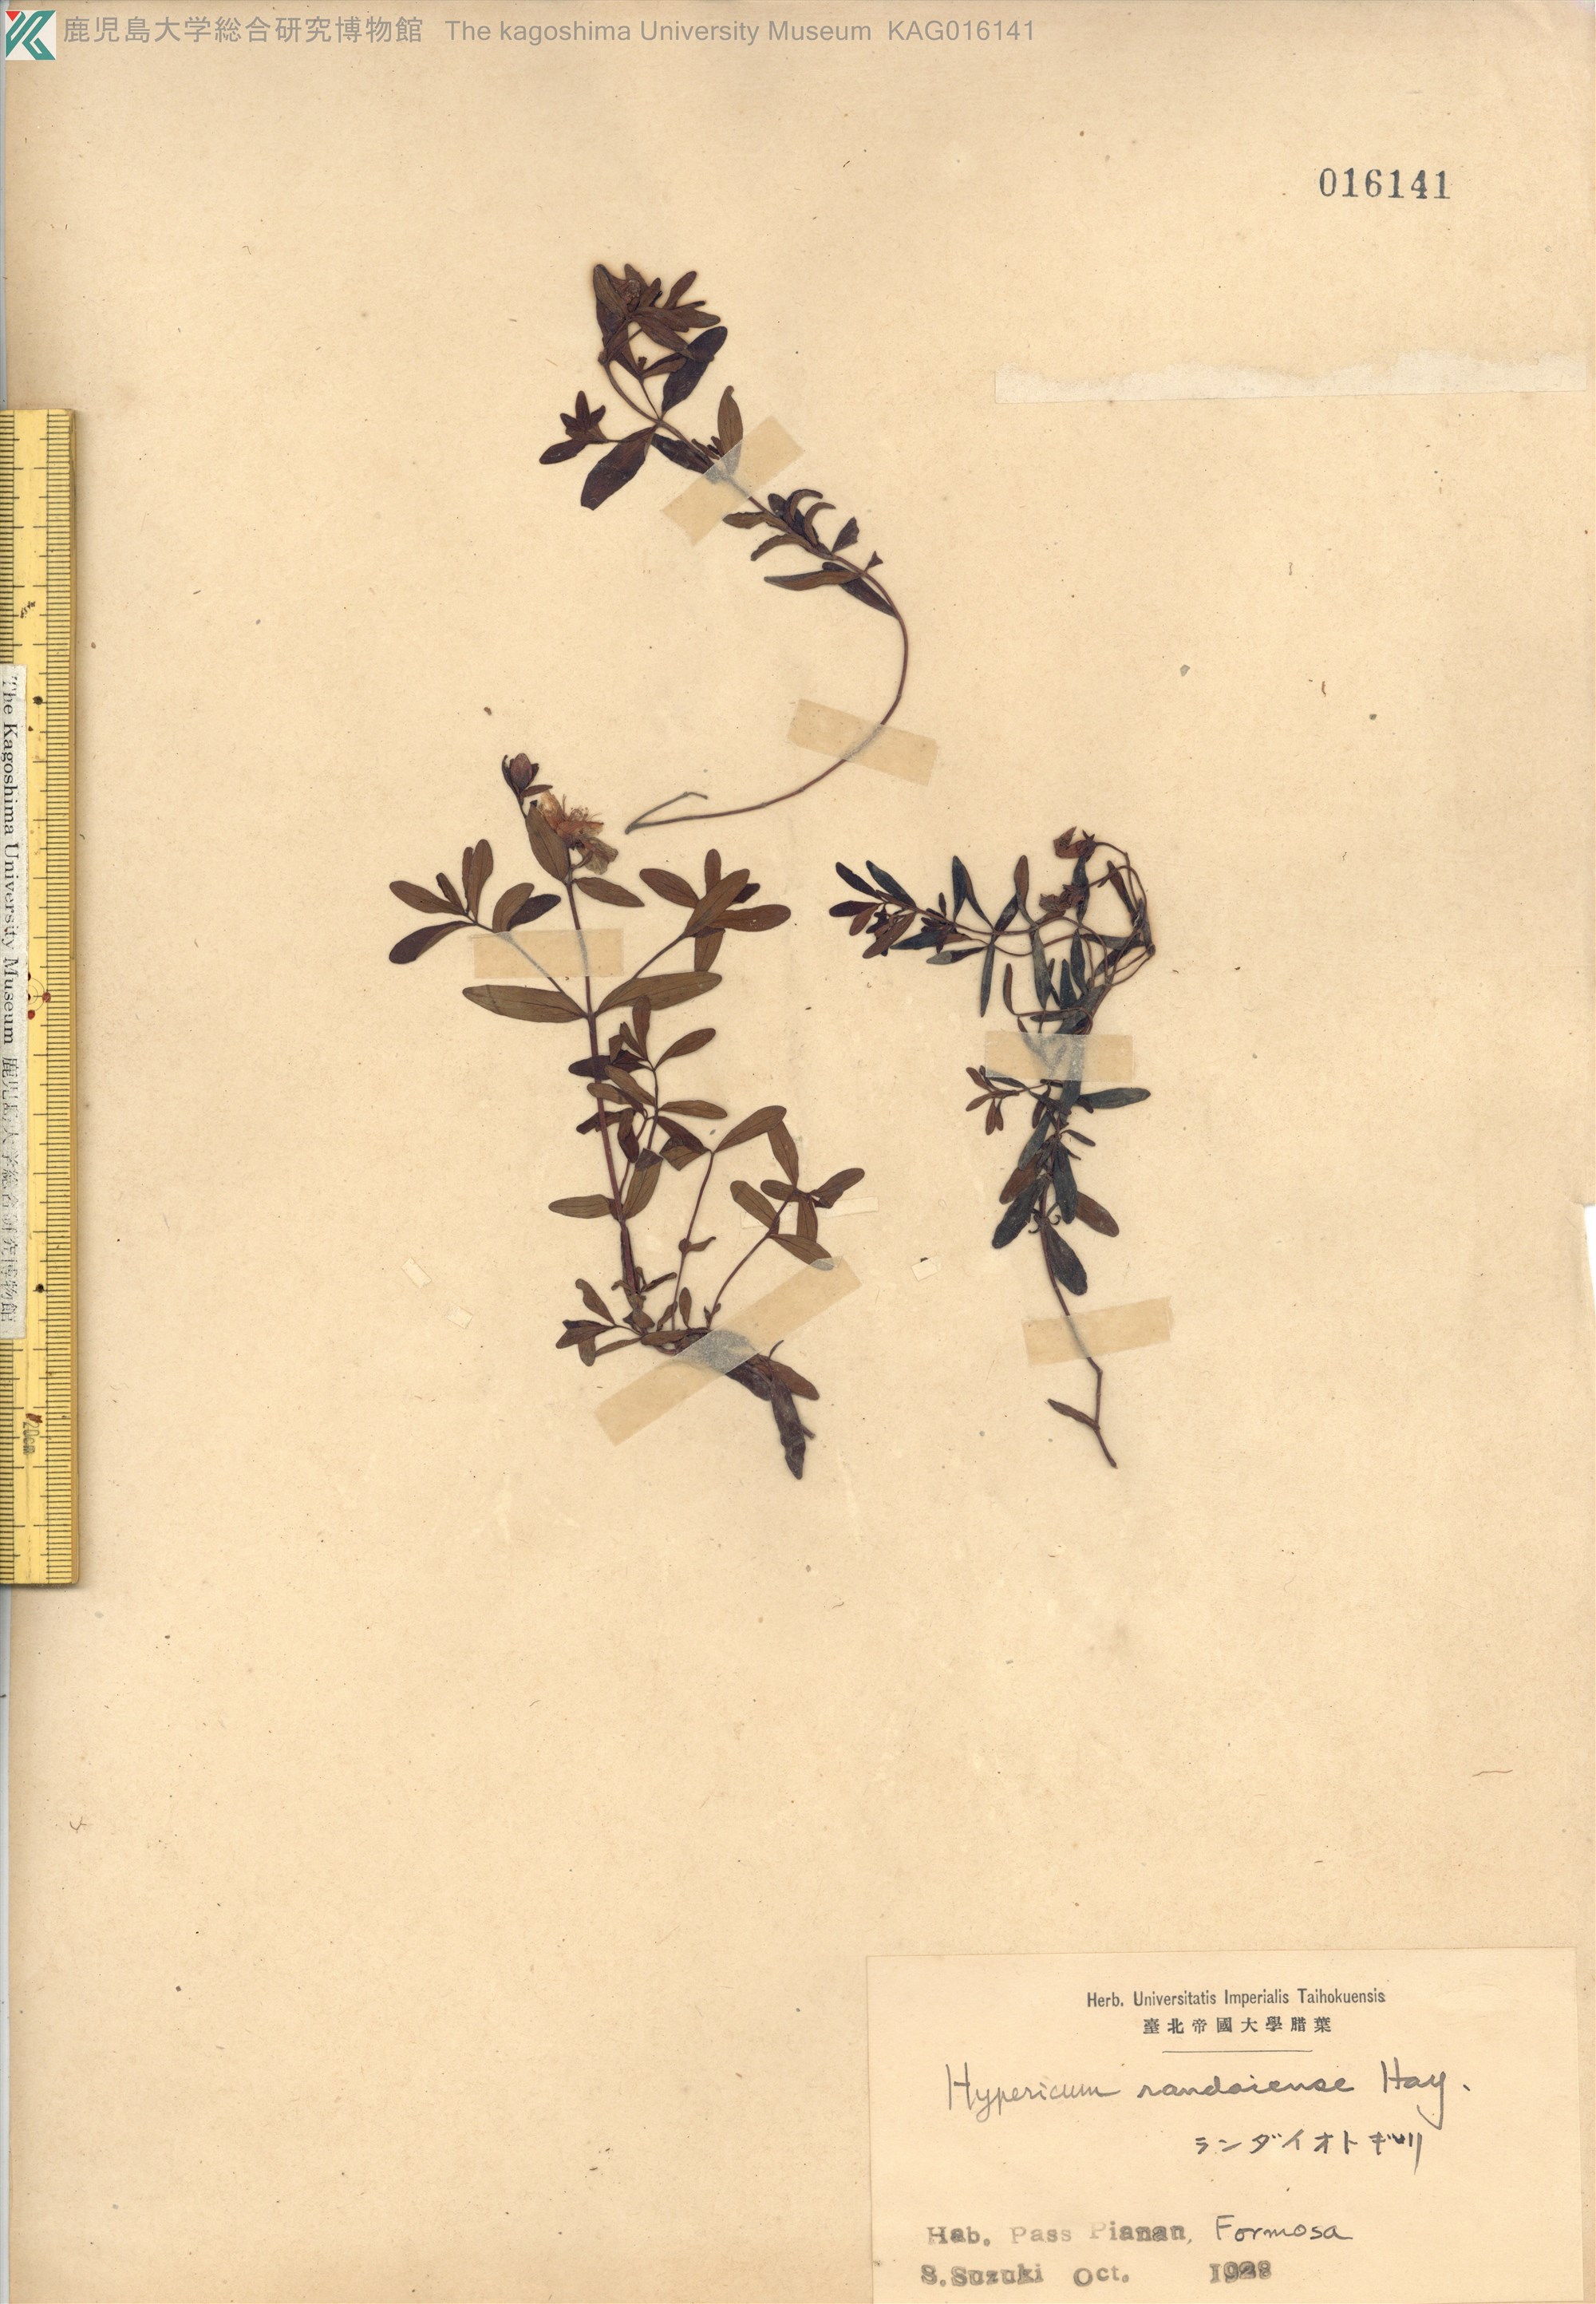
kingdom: Plantae
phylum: Tracheophyta
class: Magnoliopsida
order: Malpighiales
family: Hypericaceae
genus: Hypericum
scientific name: Hypericum nagasawae
